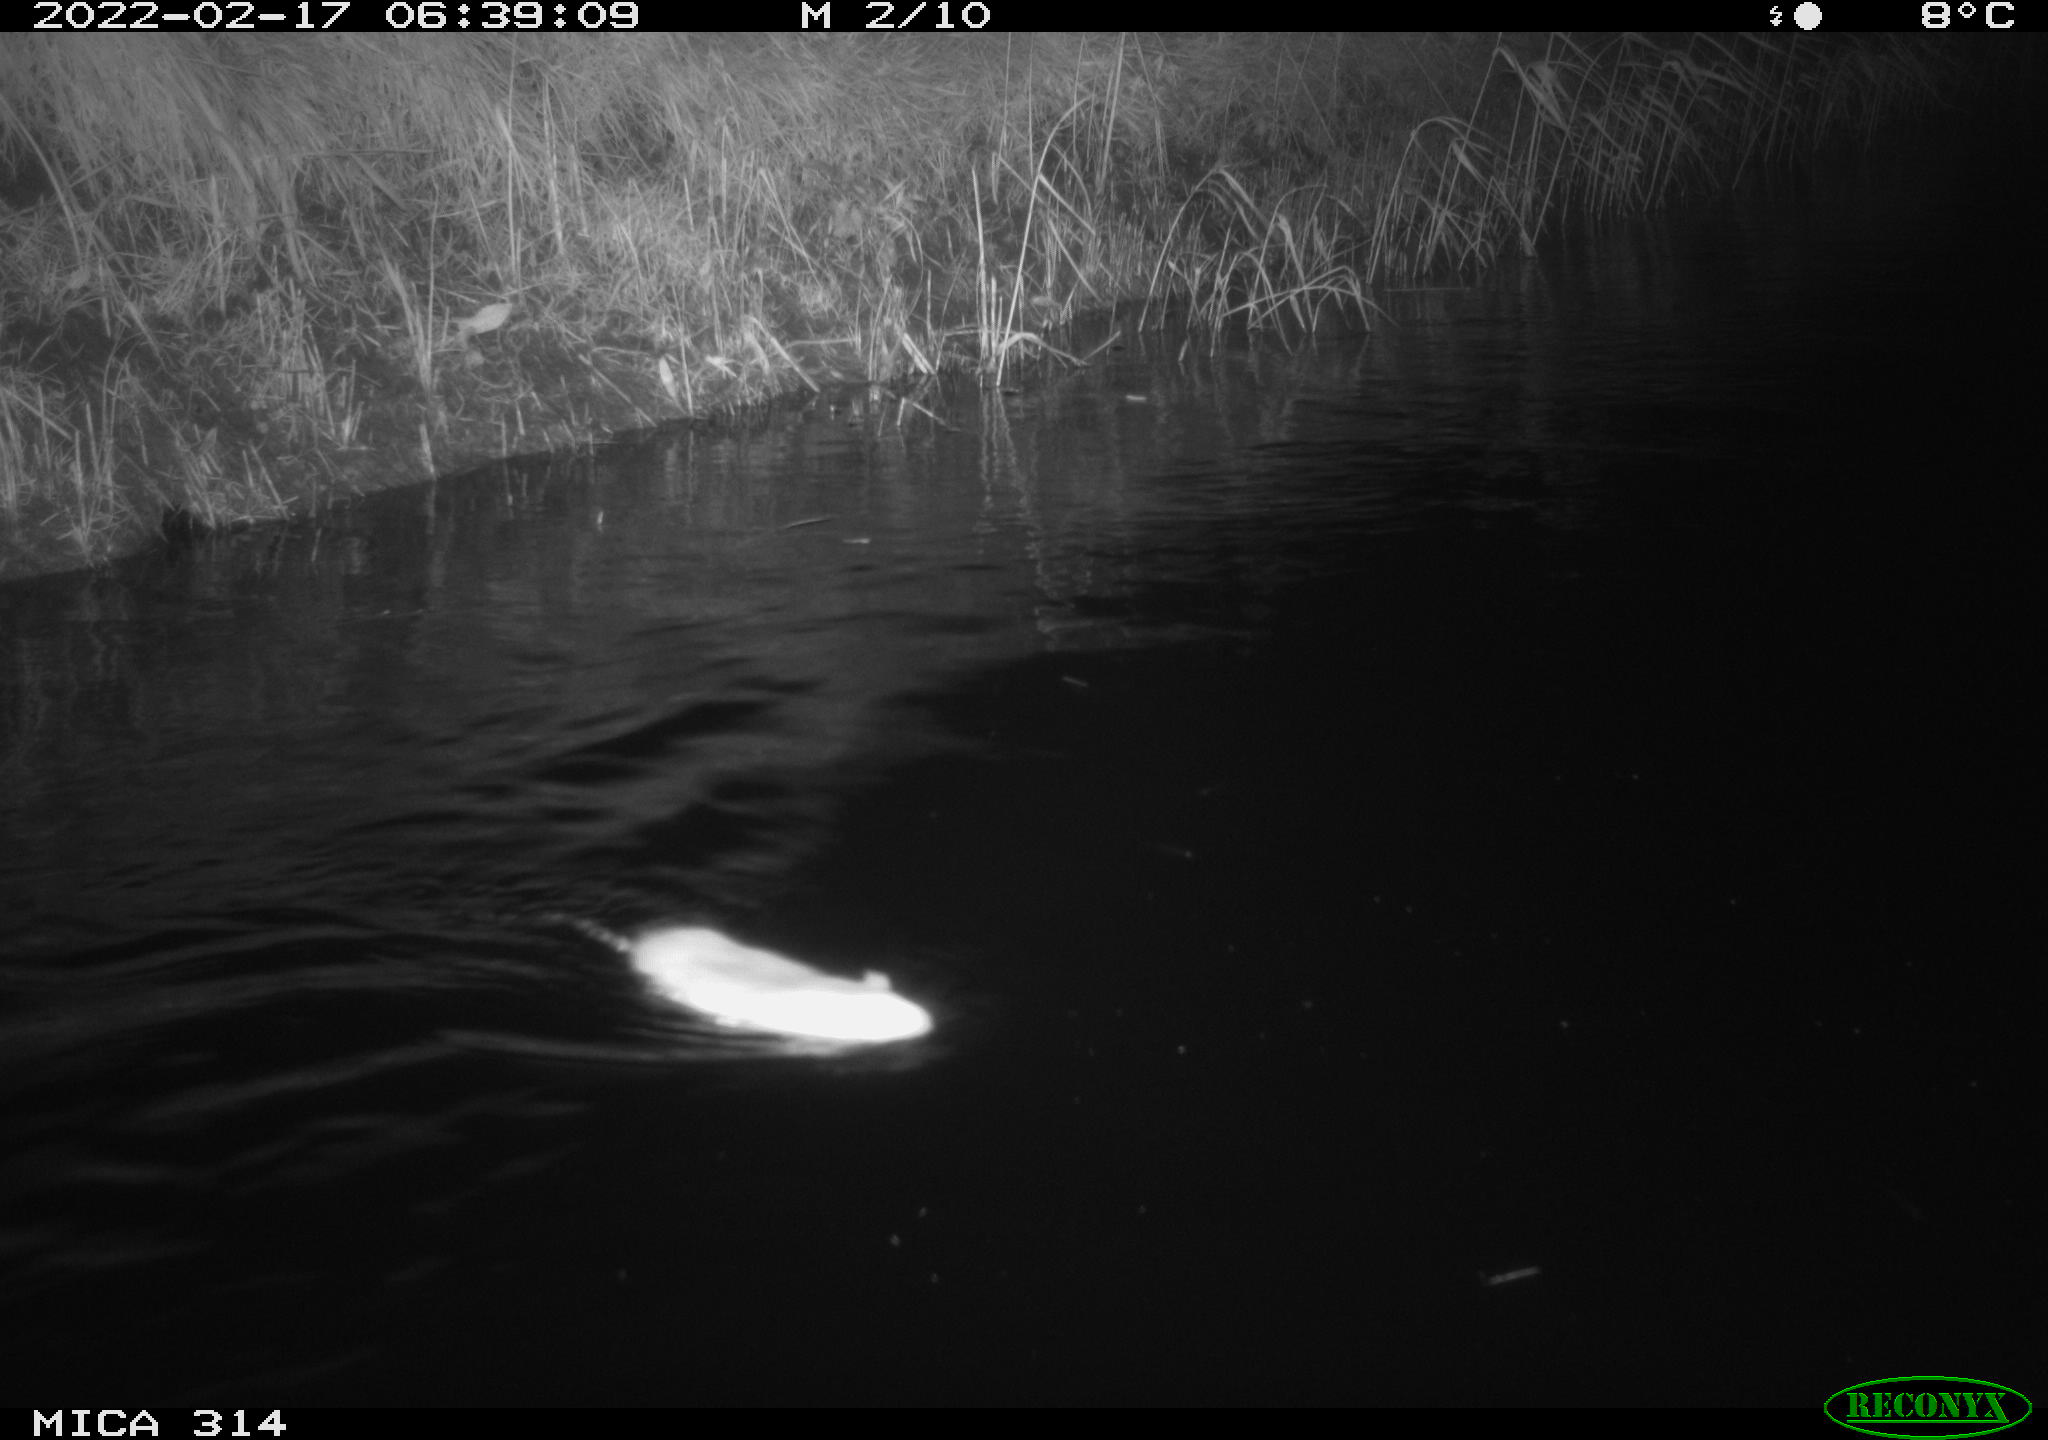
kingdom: Animalia
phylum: Chordata
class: Mammalia
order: Rodentia
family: Muridae
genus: Rattus
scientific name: Rattus norvegicus
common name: Brown rat
